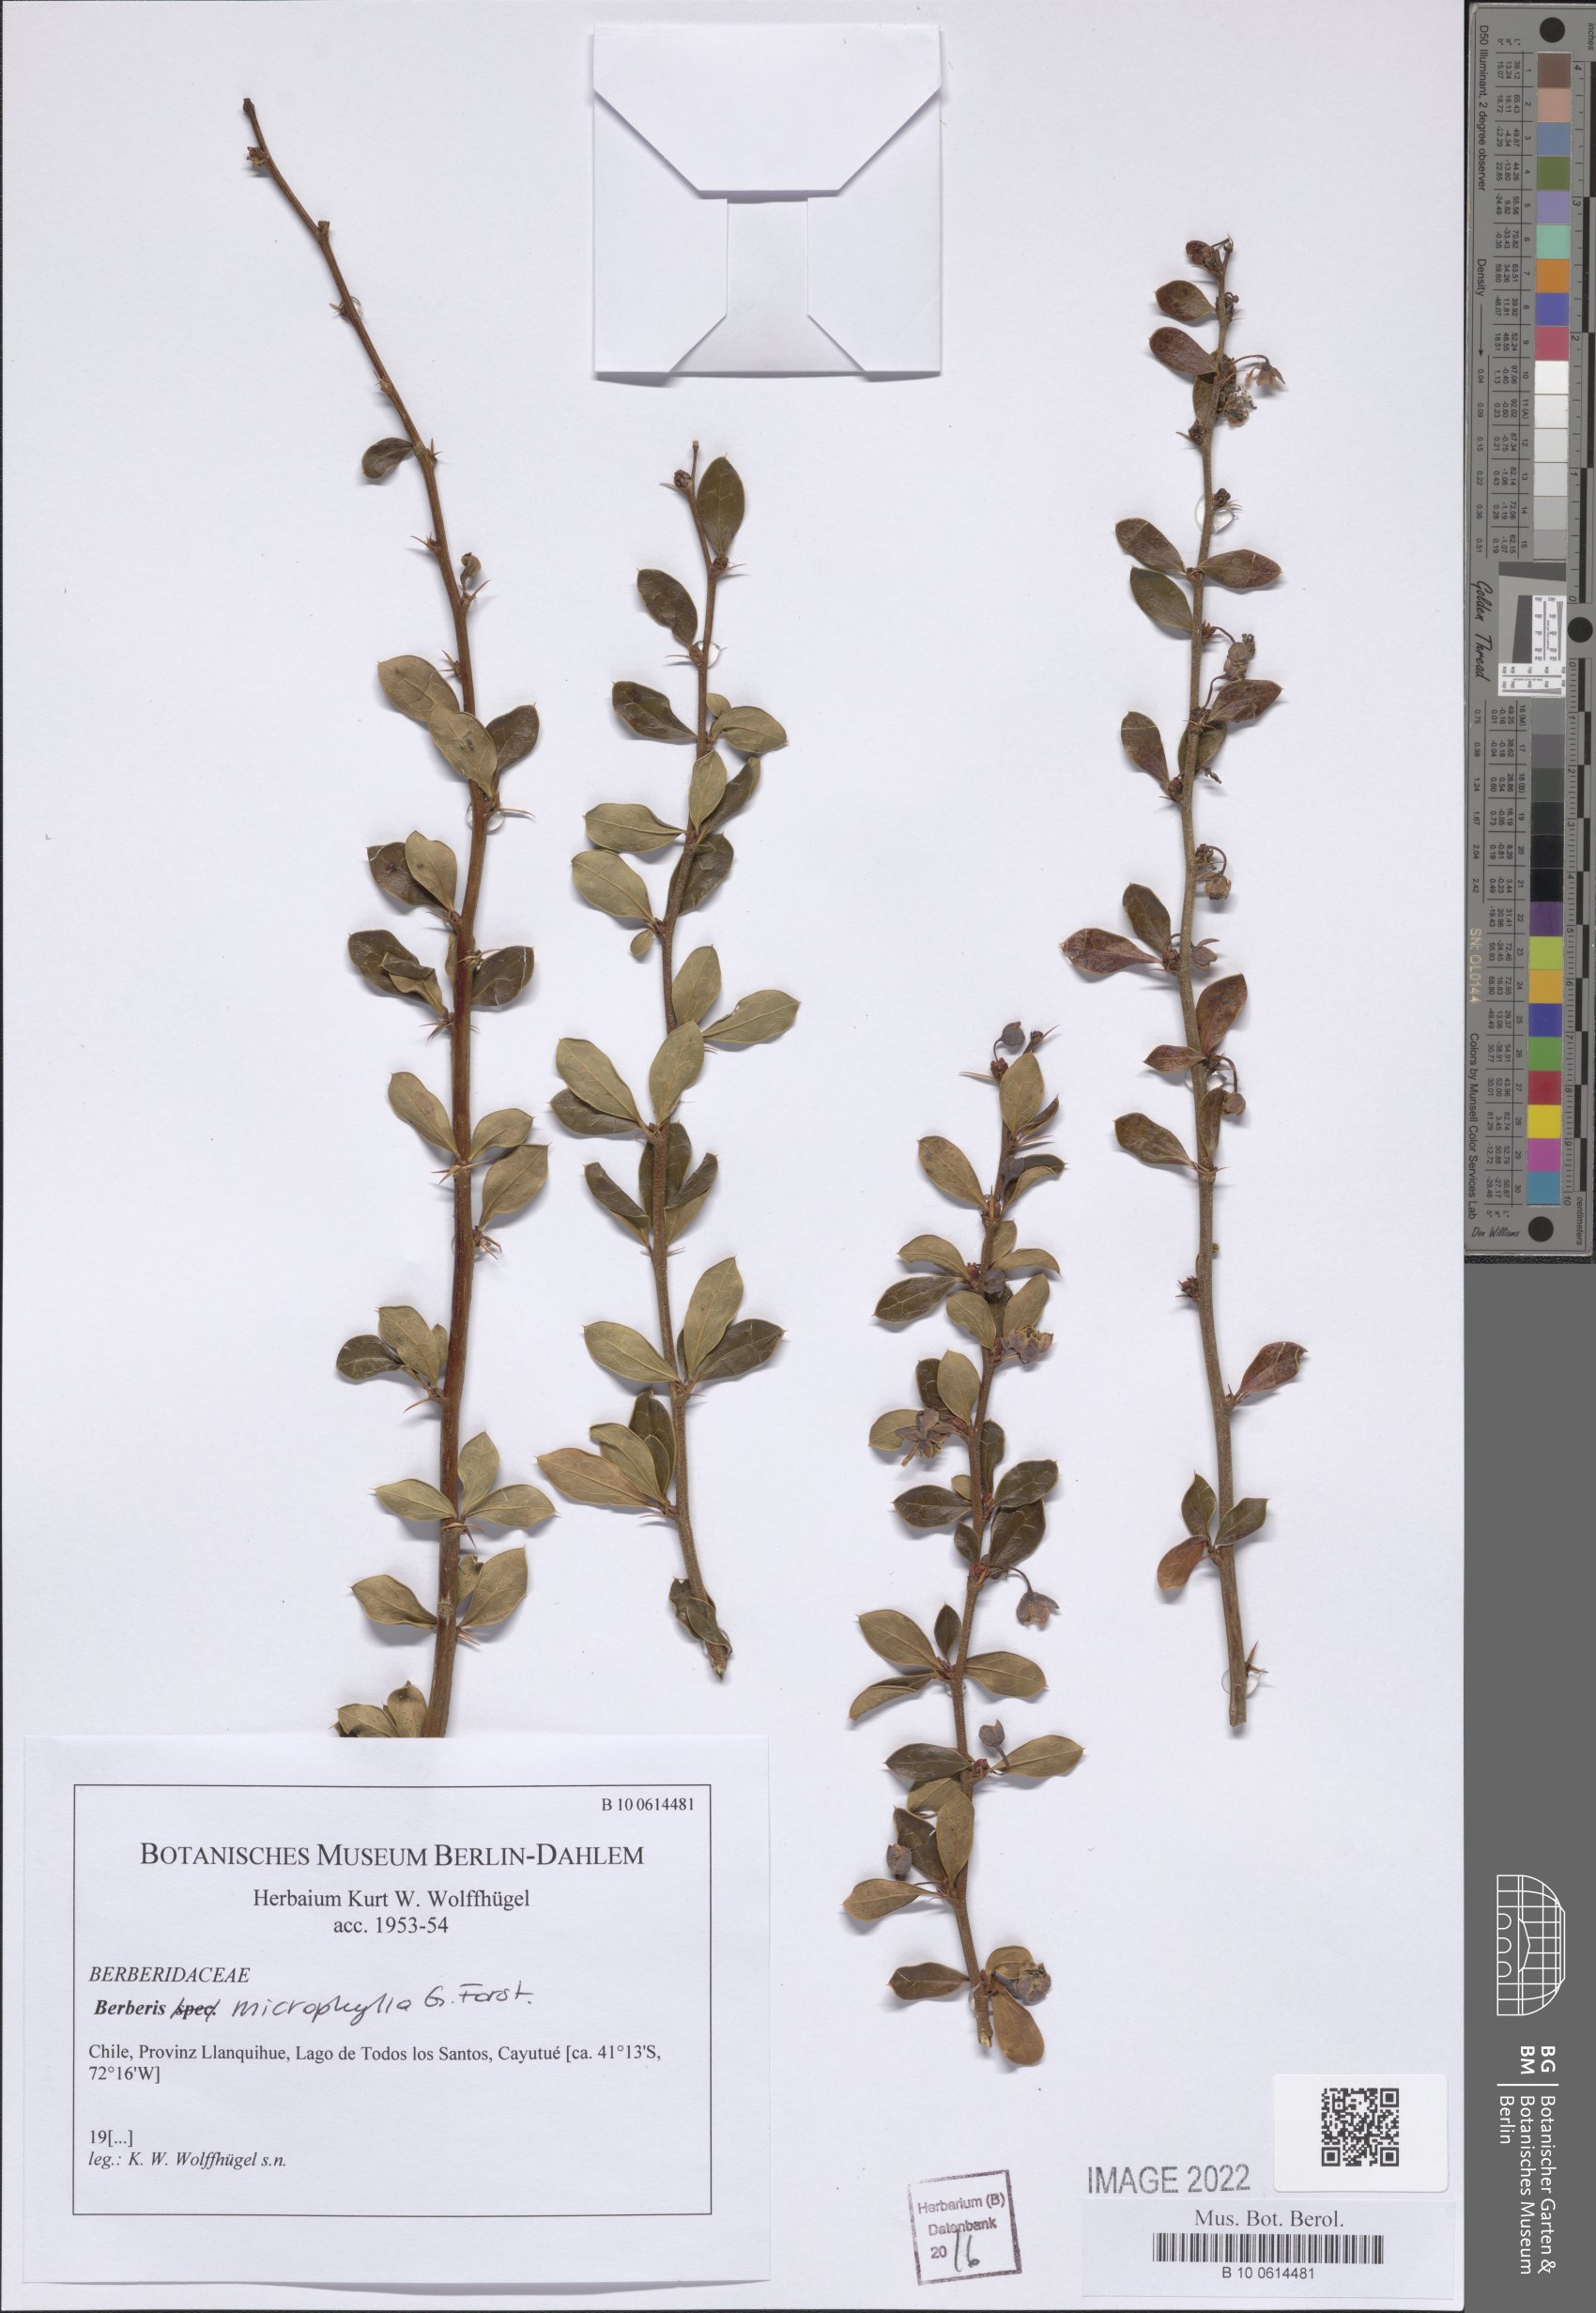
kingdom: Plantae
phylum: Tracheophyta
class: Magnoliopsida
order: Ranunculales
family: Berberidaceae
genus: Berberis
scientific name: Berberis microphylla
